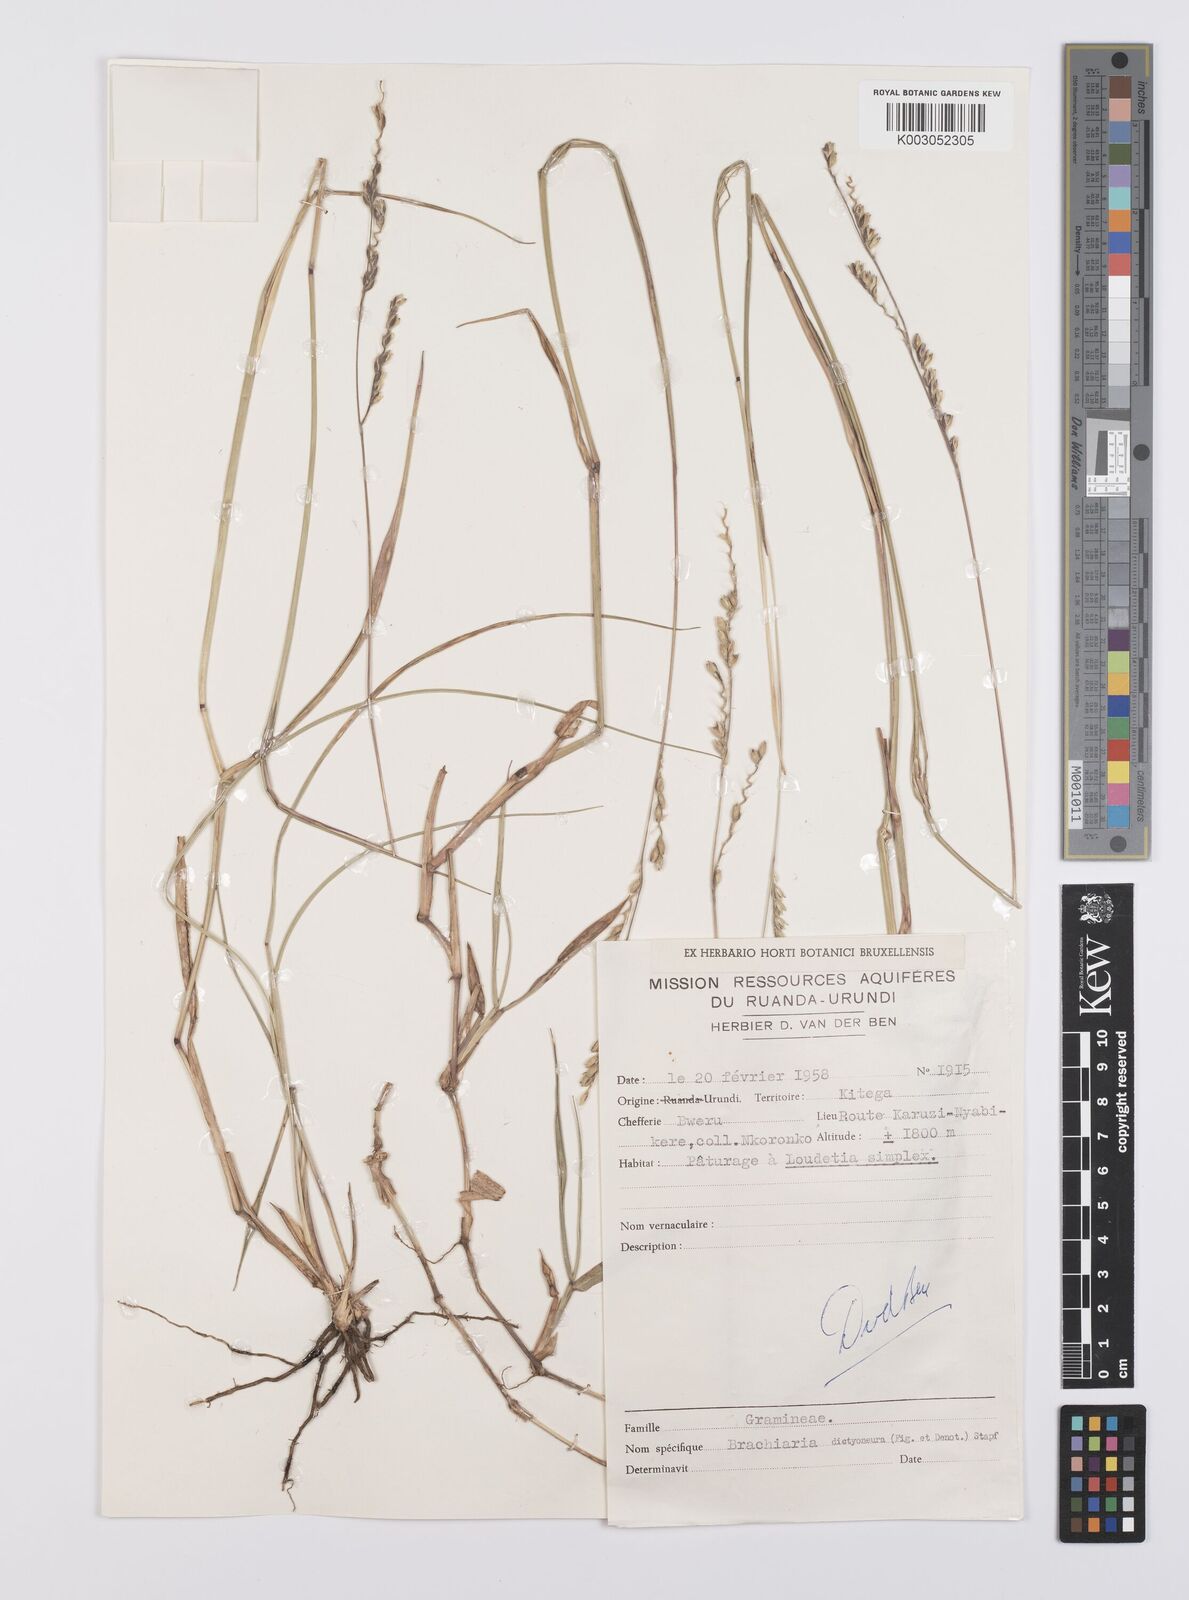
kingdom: Plantae
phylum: Tracheophyta
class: Liliopsida
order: Poales
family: Poaceae
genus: Urochloa
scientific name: Urochloa dictyoneura
